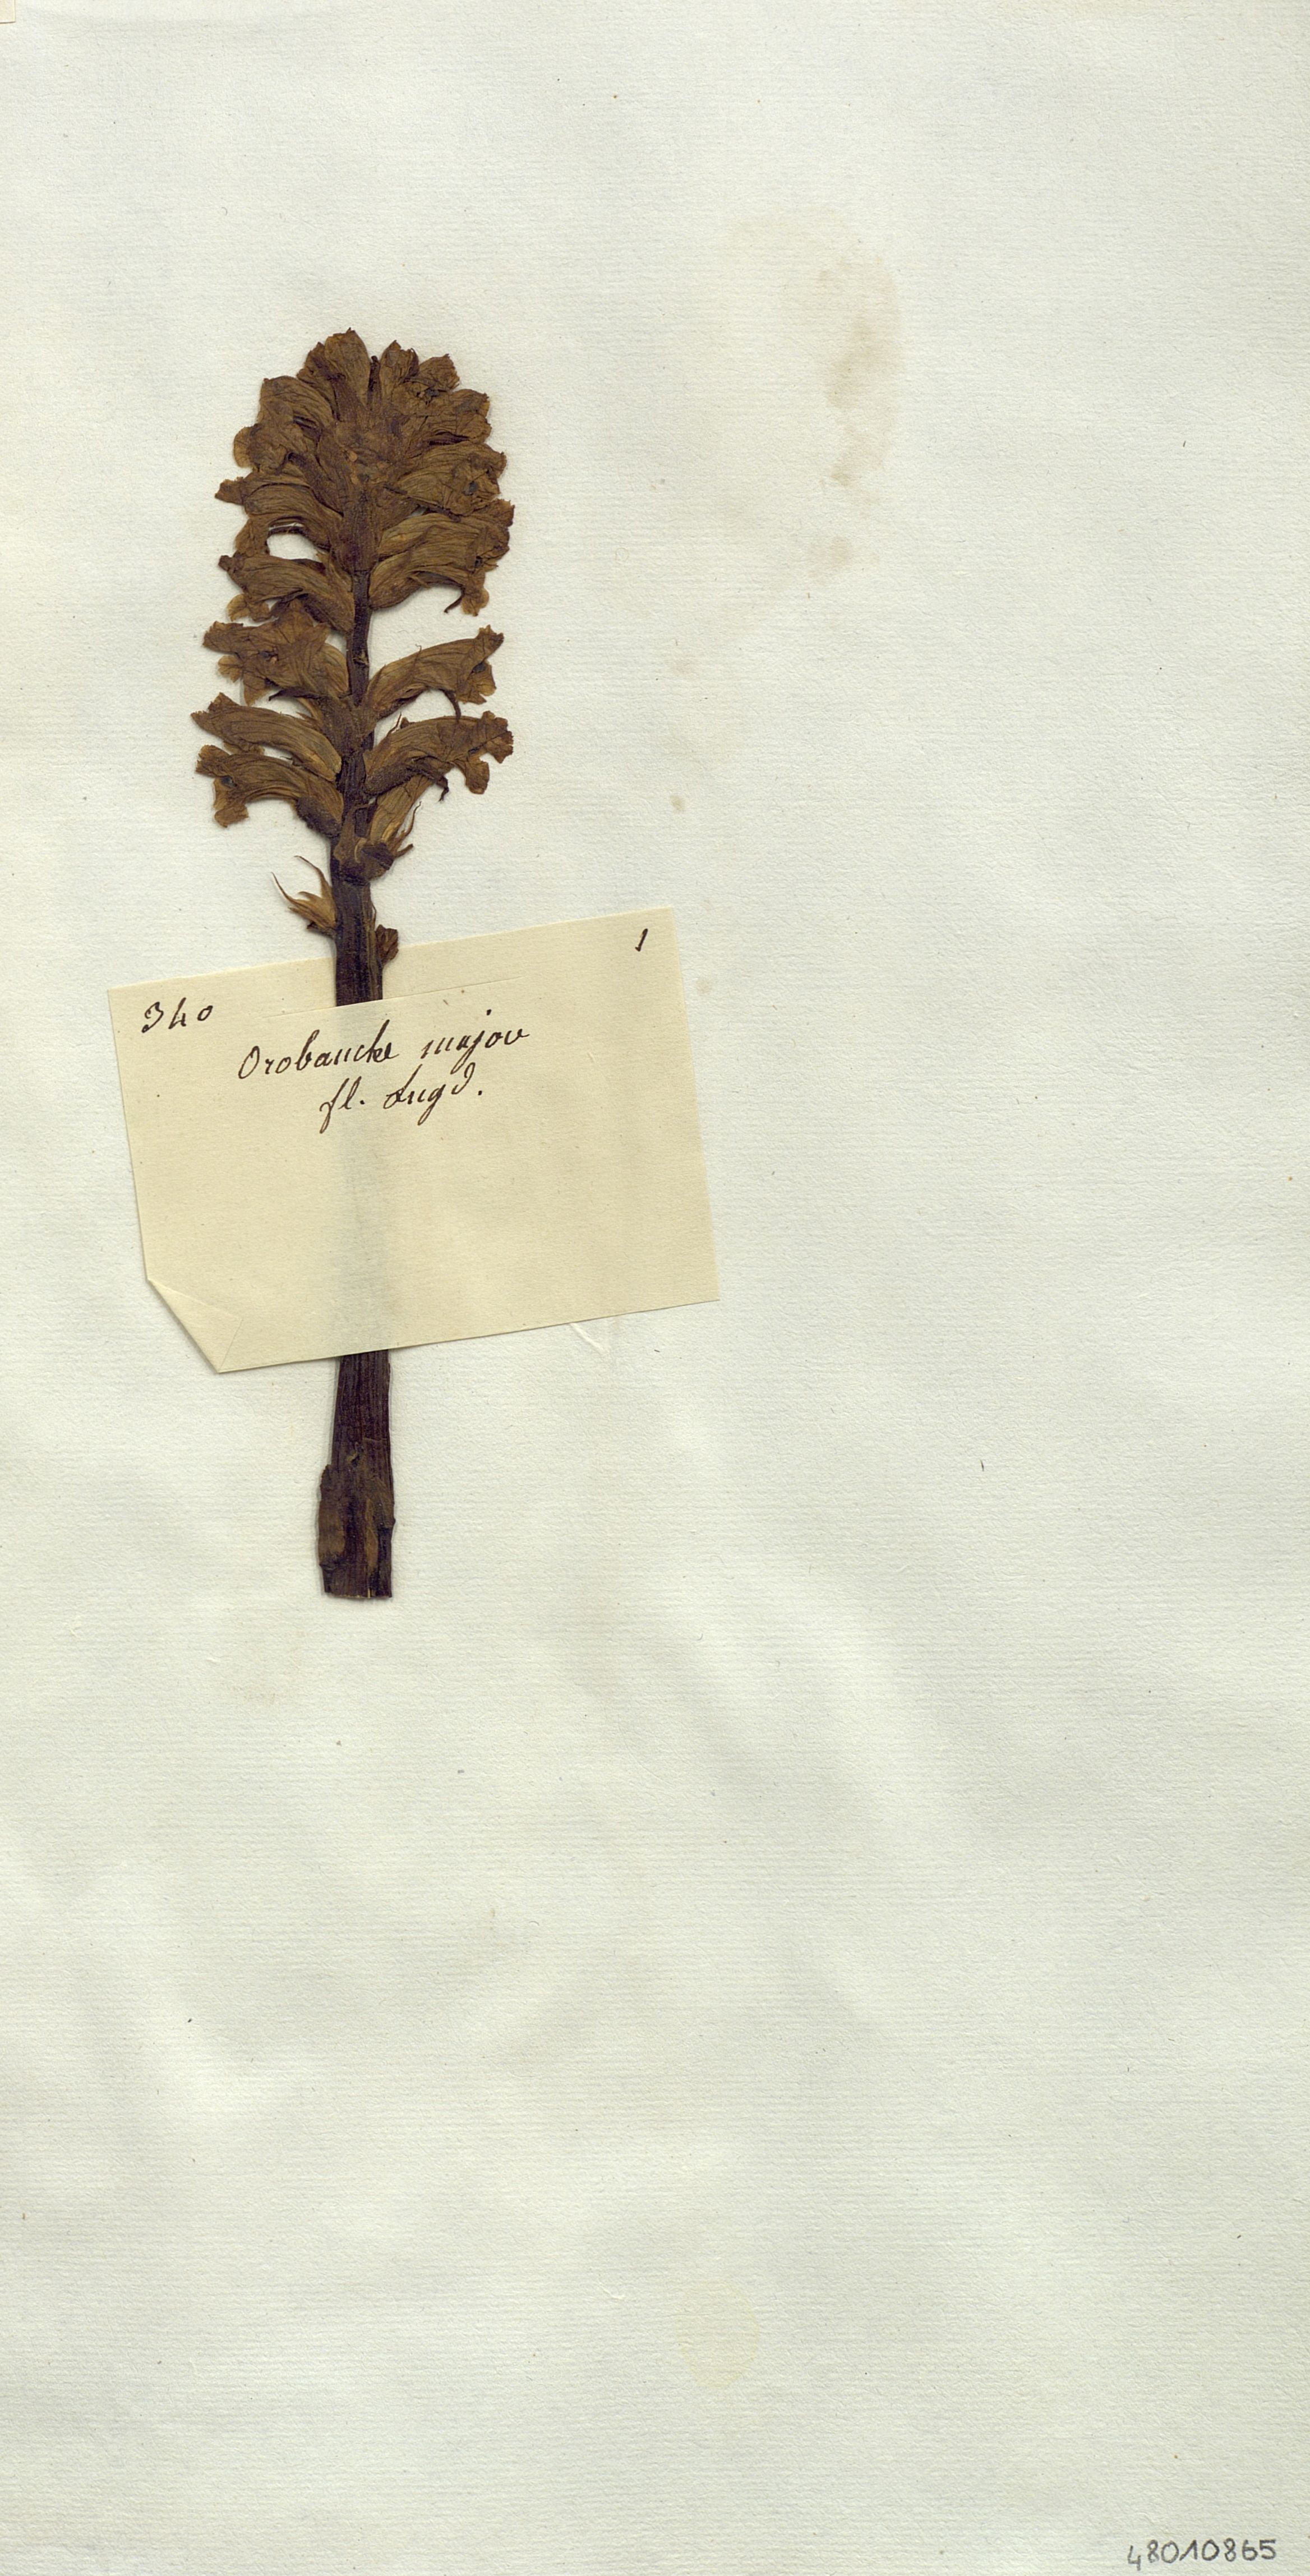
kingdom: Plantae
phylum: Tracheophyta
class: Magnoliopsida
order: Lamiales
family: Orobanchaceae
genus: Orobanche
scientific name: Orobanche minor
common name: Common broomrape
